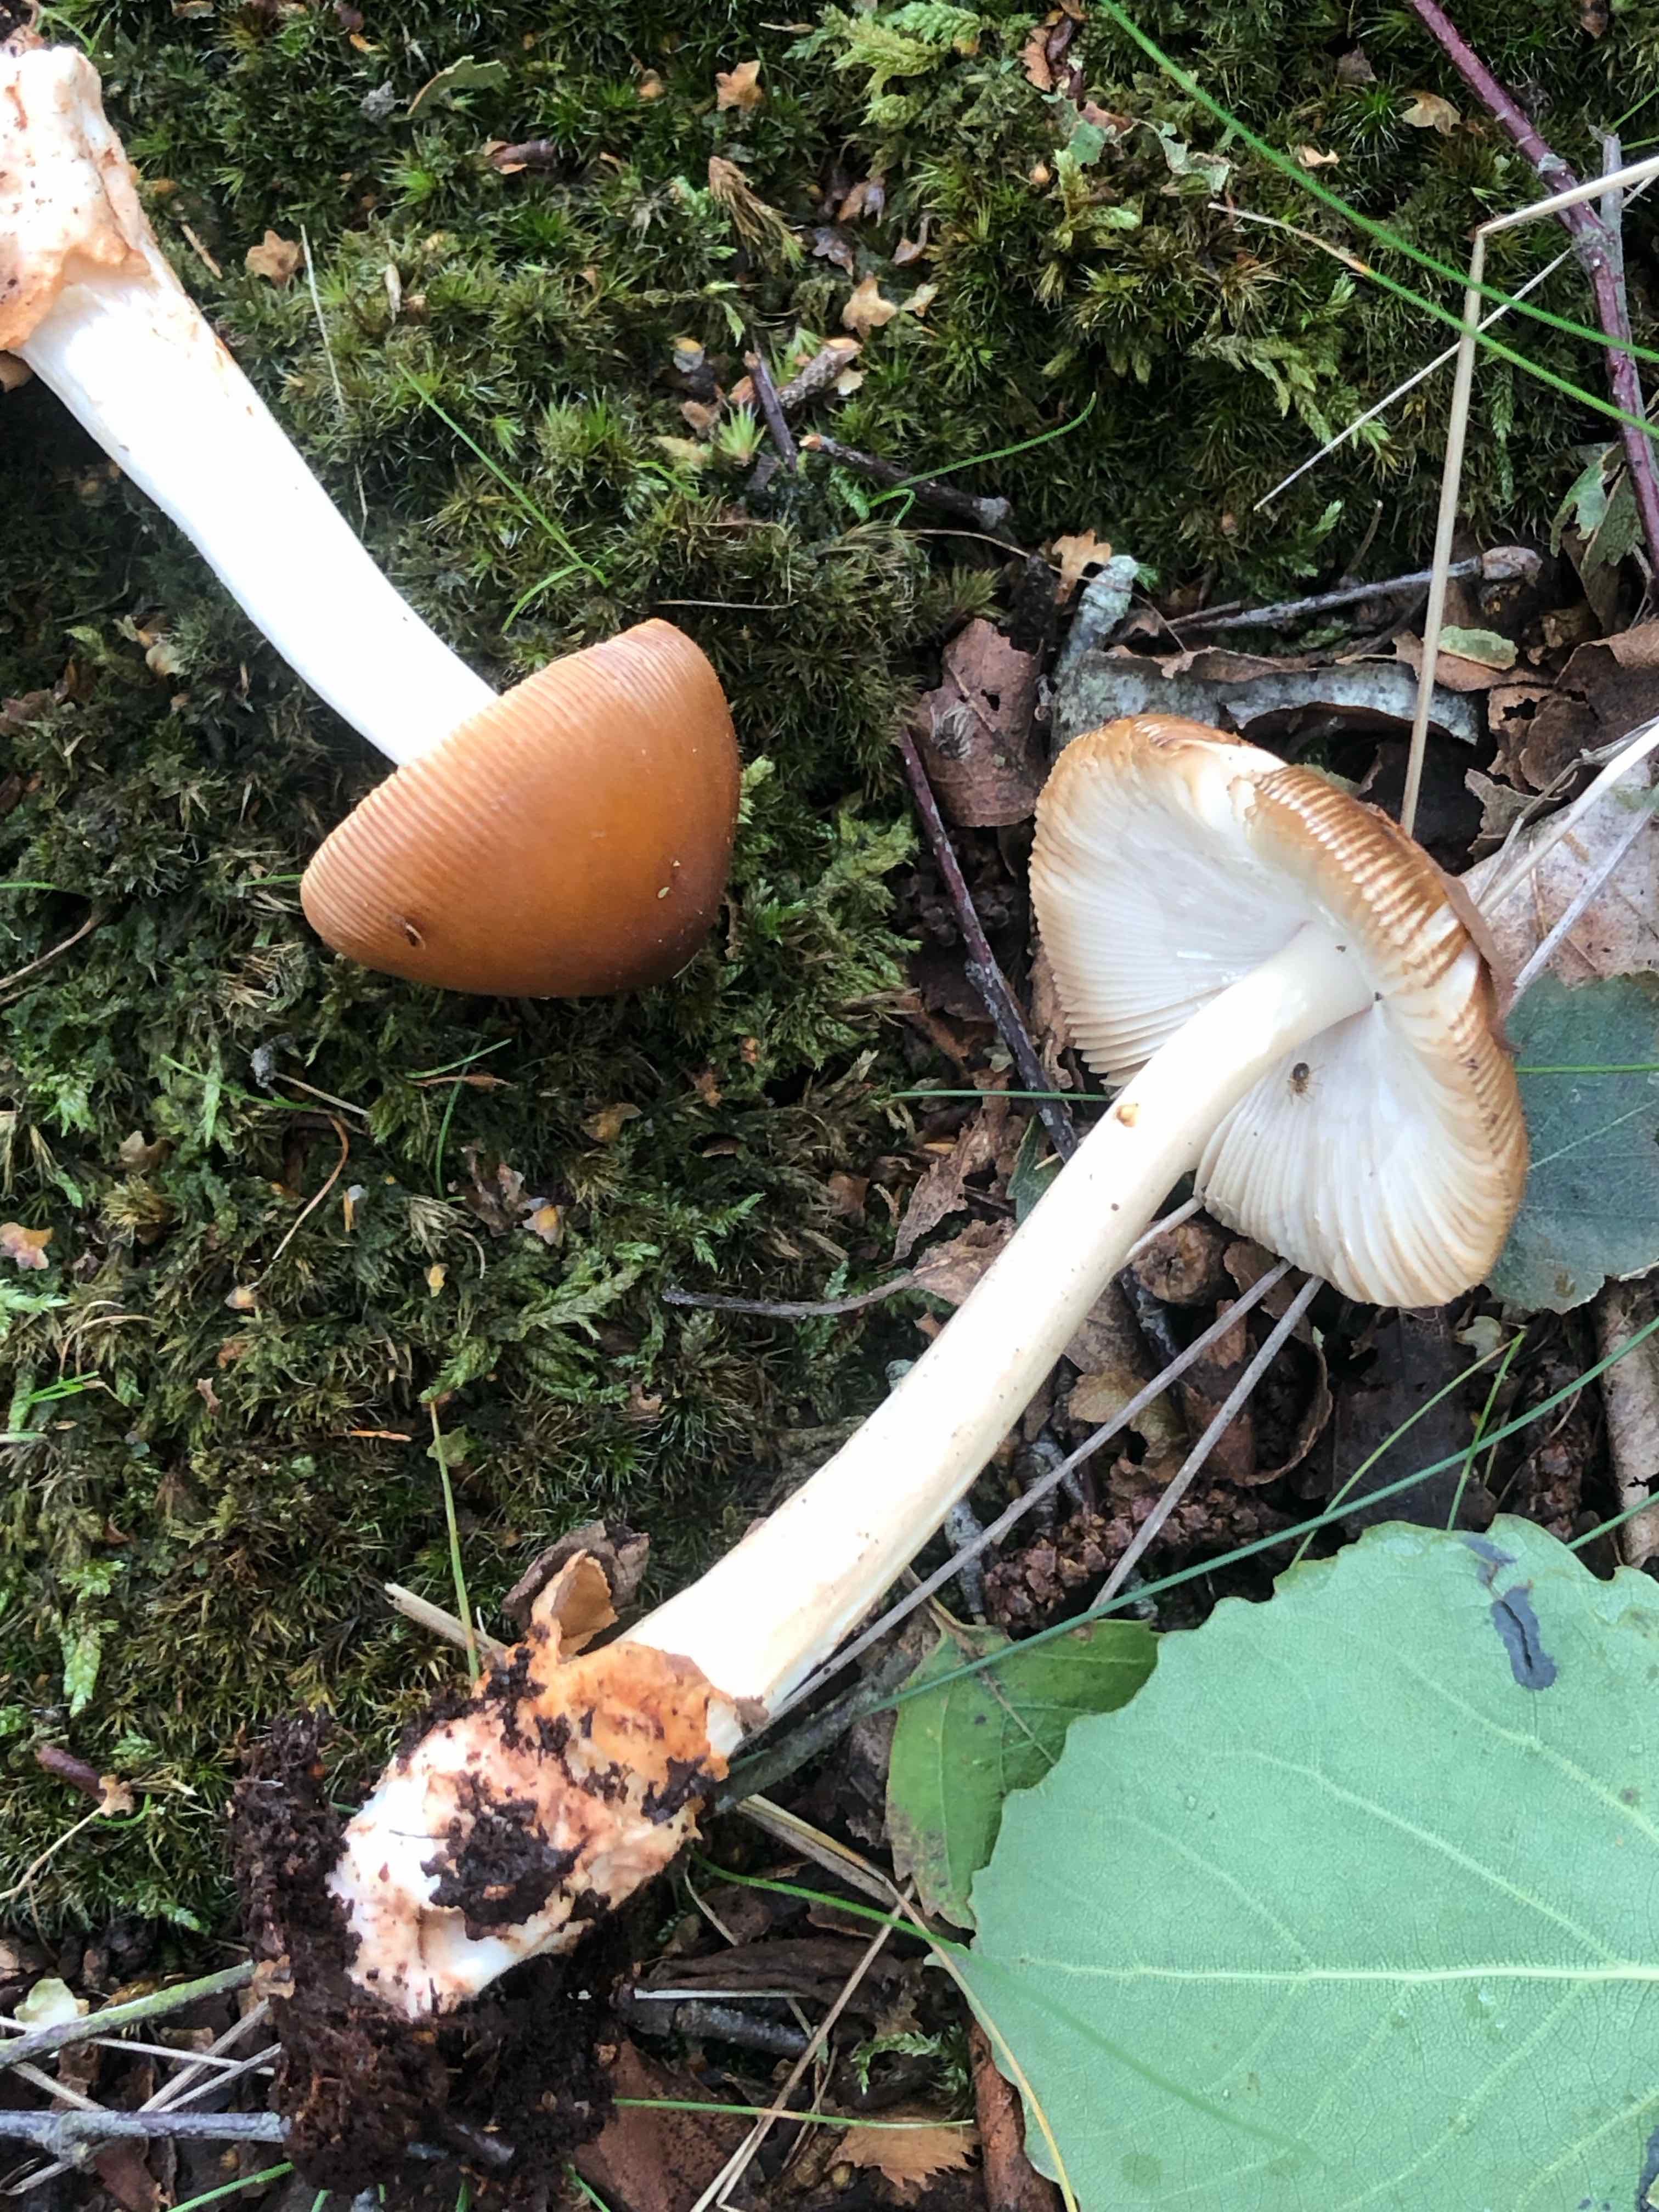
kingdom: Fungi
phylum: Basidiomycota
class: Agaricomycetes
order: Agaricales
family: Amanitaceae
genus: Amanita
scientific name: Amanita fulva
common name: brun kam-fluesvamp
